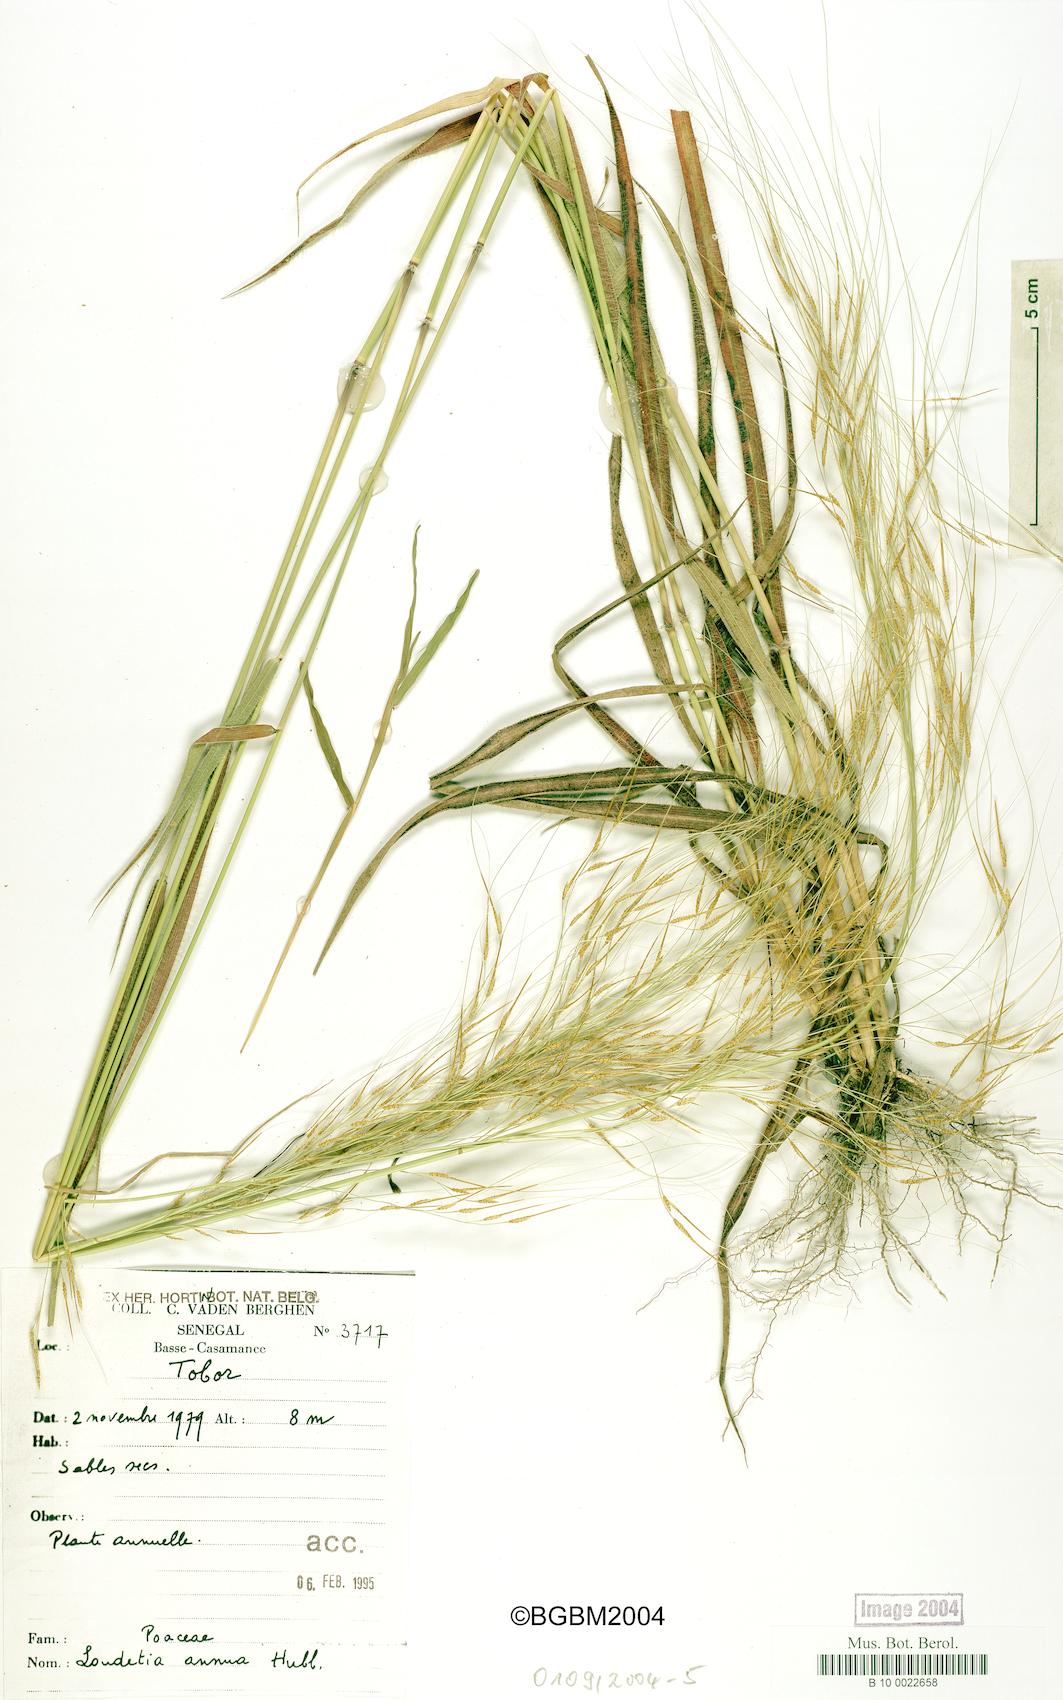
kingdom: Plantae
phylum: Tracheophyta
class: Liliopsida
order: Poales
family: Poaceae
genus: Loudetia
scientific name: Loudetia annua
